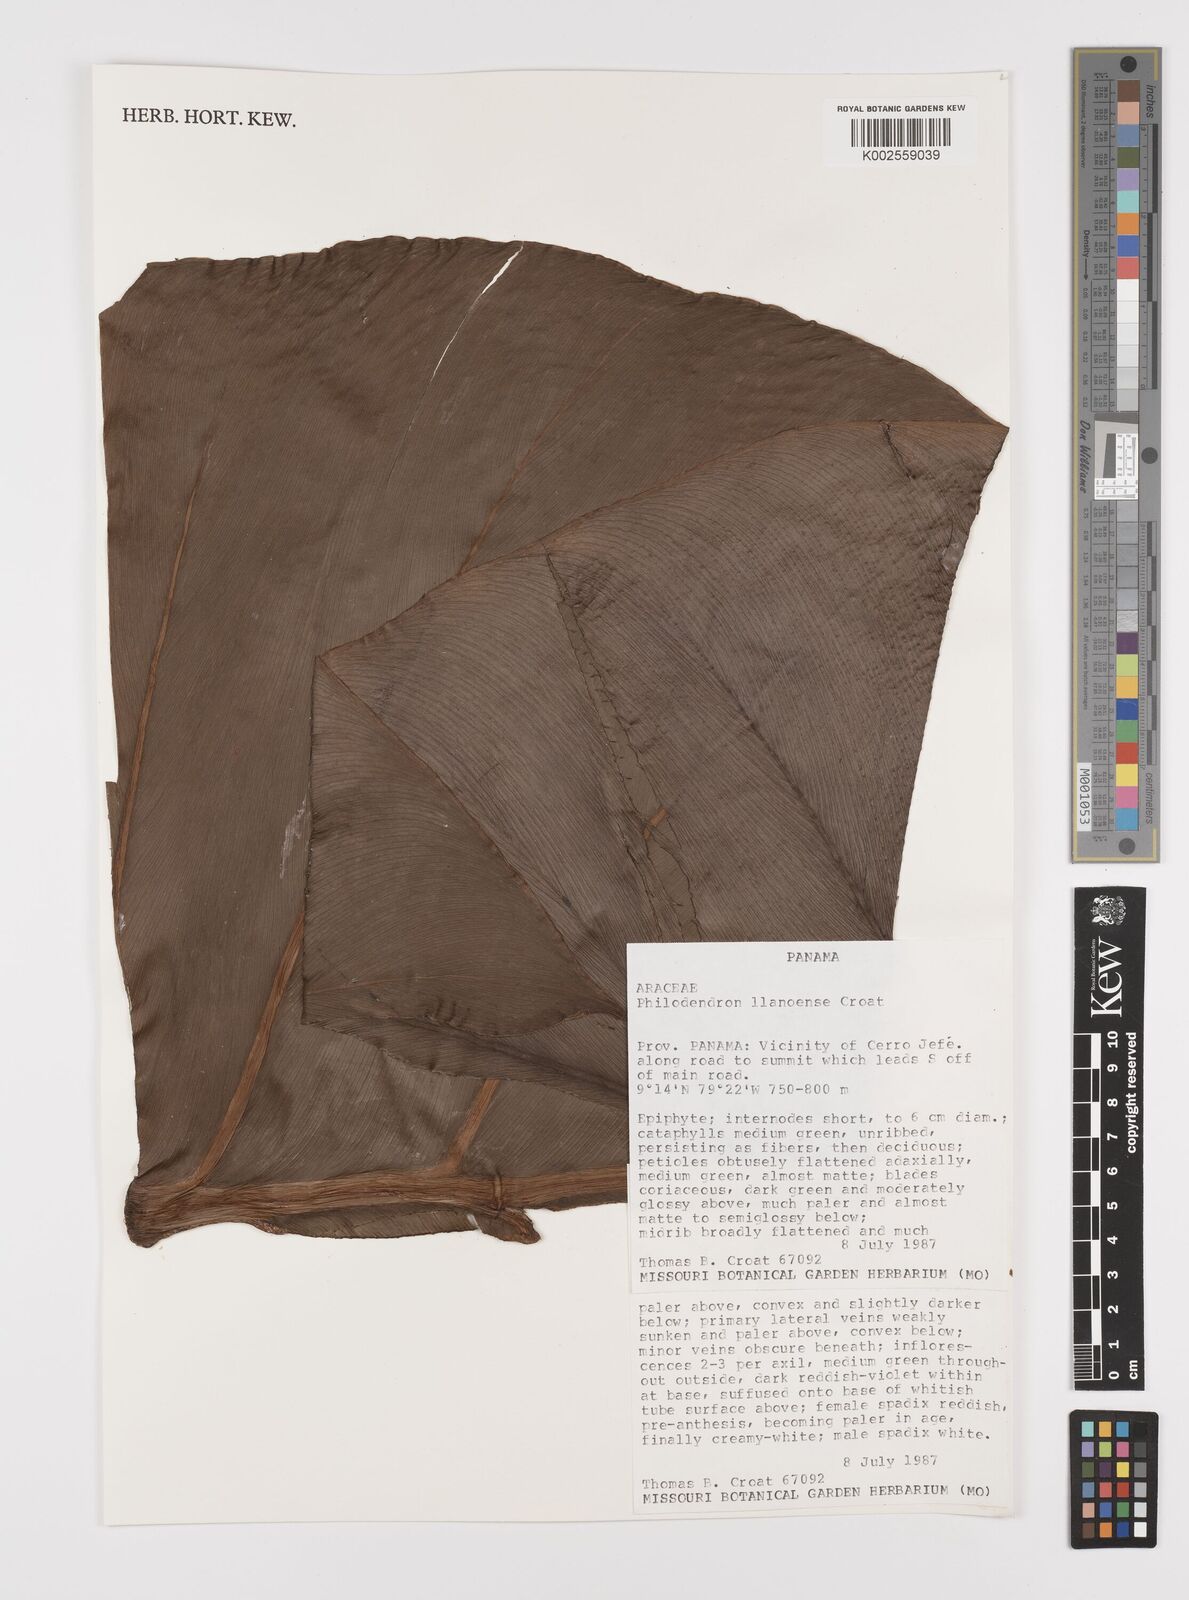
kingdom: Plantae
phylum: Tracheophyta
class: Liliopsida
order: Alismatales
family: Araceae
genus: Philodendron
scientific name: Philodendron llanense
